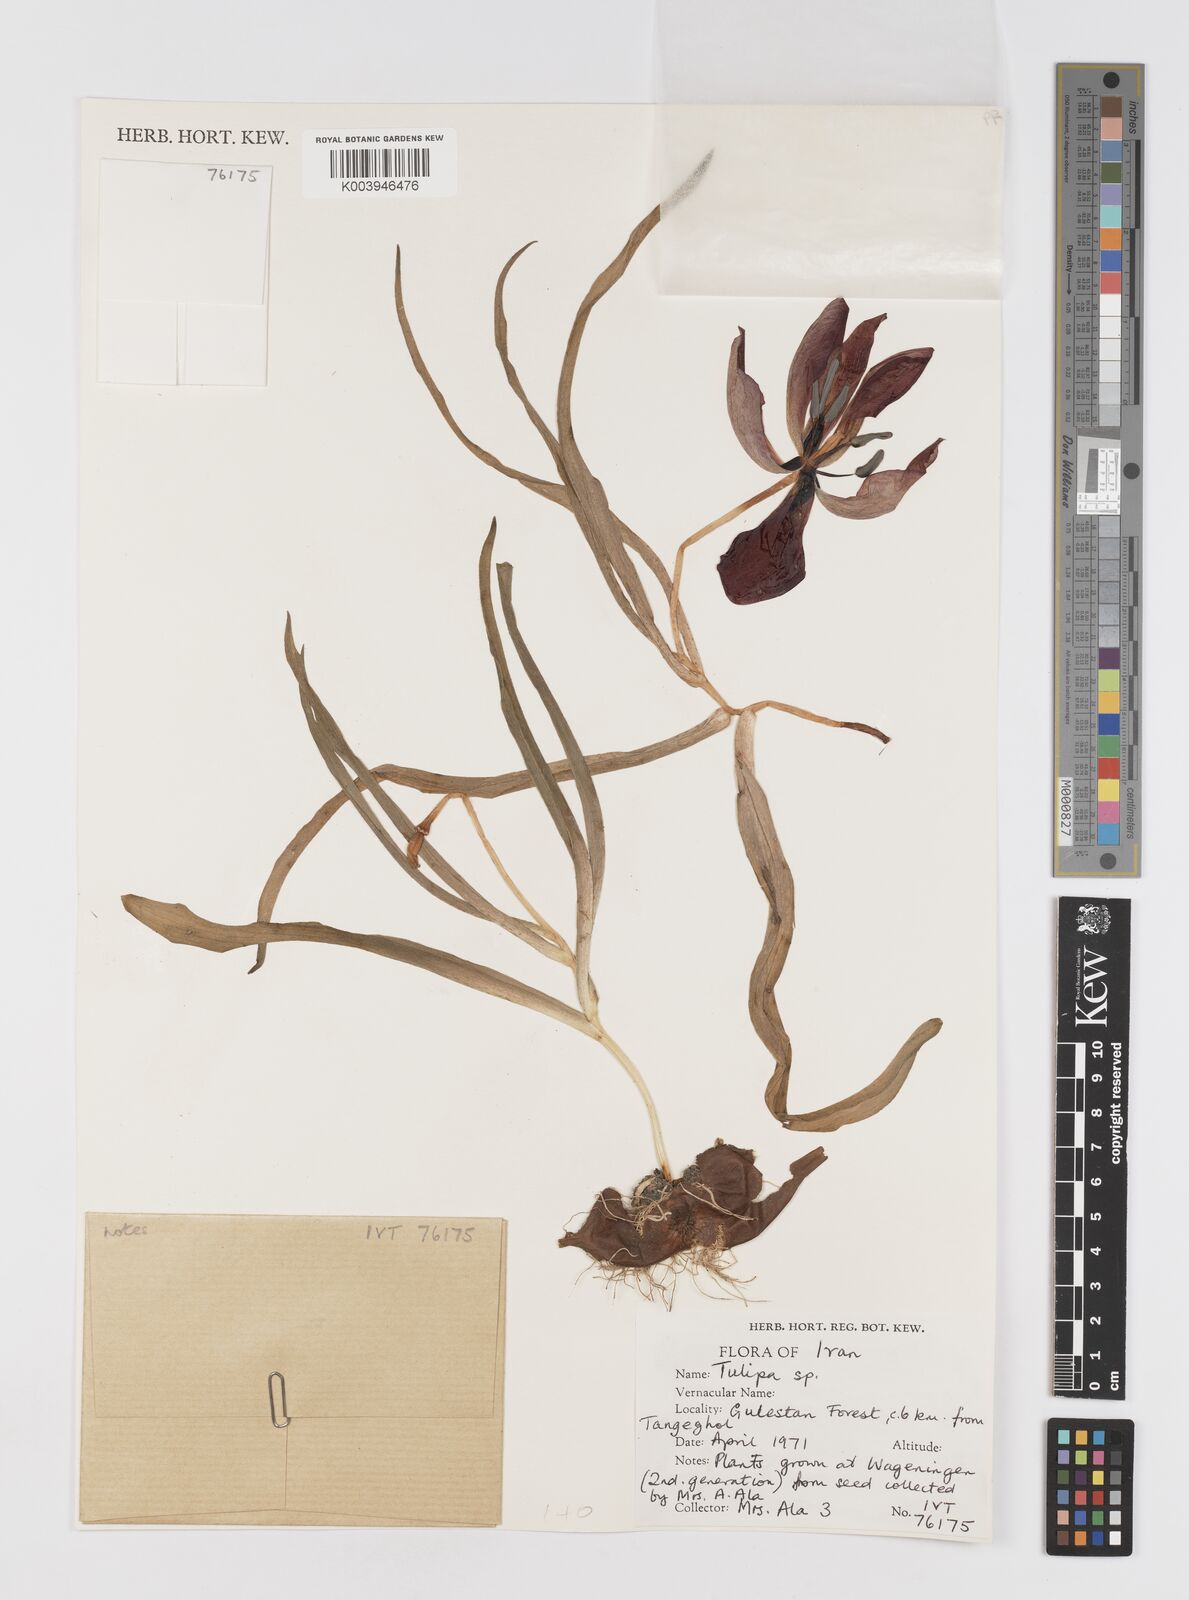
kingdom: Plantae
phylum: Tracheophyta
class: Liliopsida
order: Liliales
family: Liliaceae
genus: Tulipa
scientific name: Tulipa
